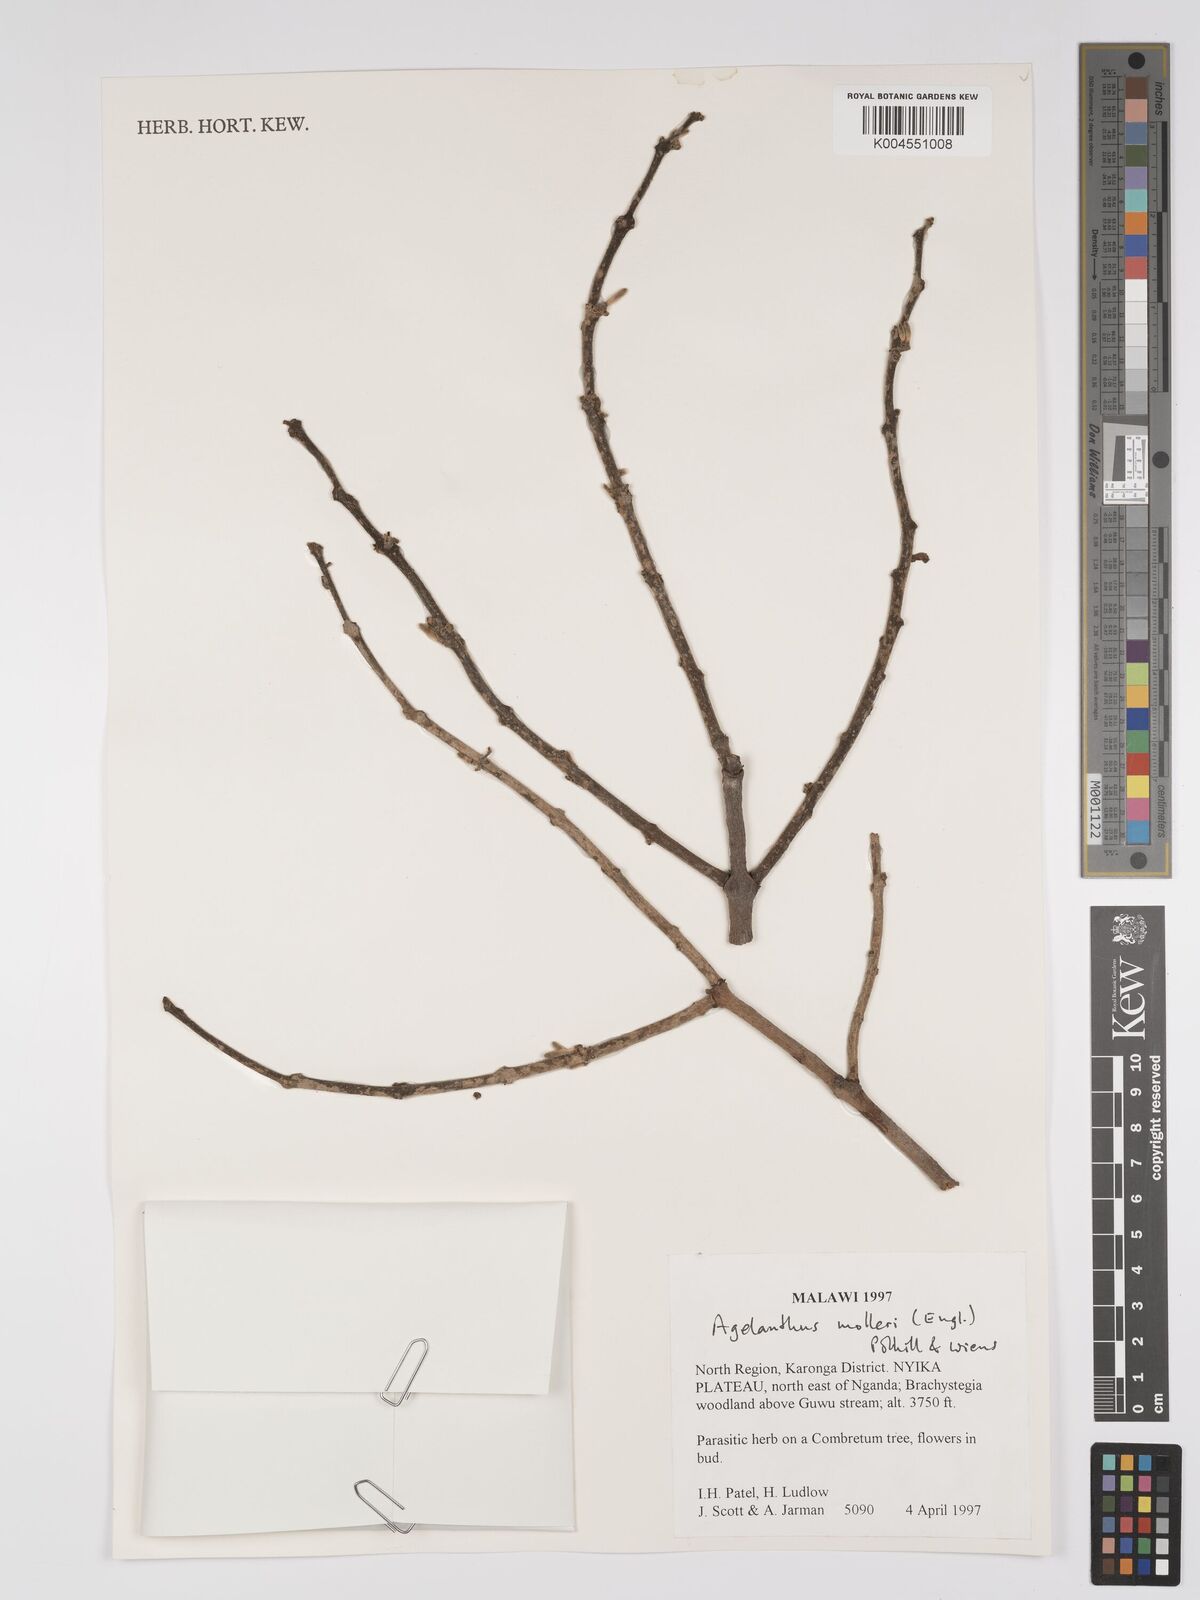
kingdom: Plantae
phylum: Tracheophyta
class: Magnoliopsida
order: Santalales
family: Loranthaceae
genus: Agelanthus
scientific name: Agelanthus molleri
